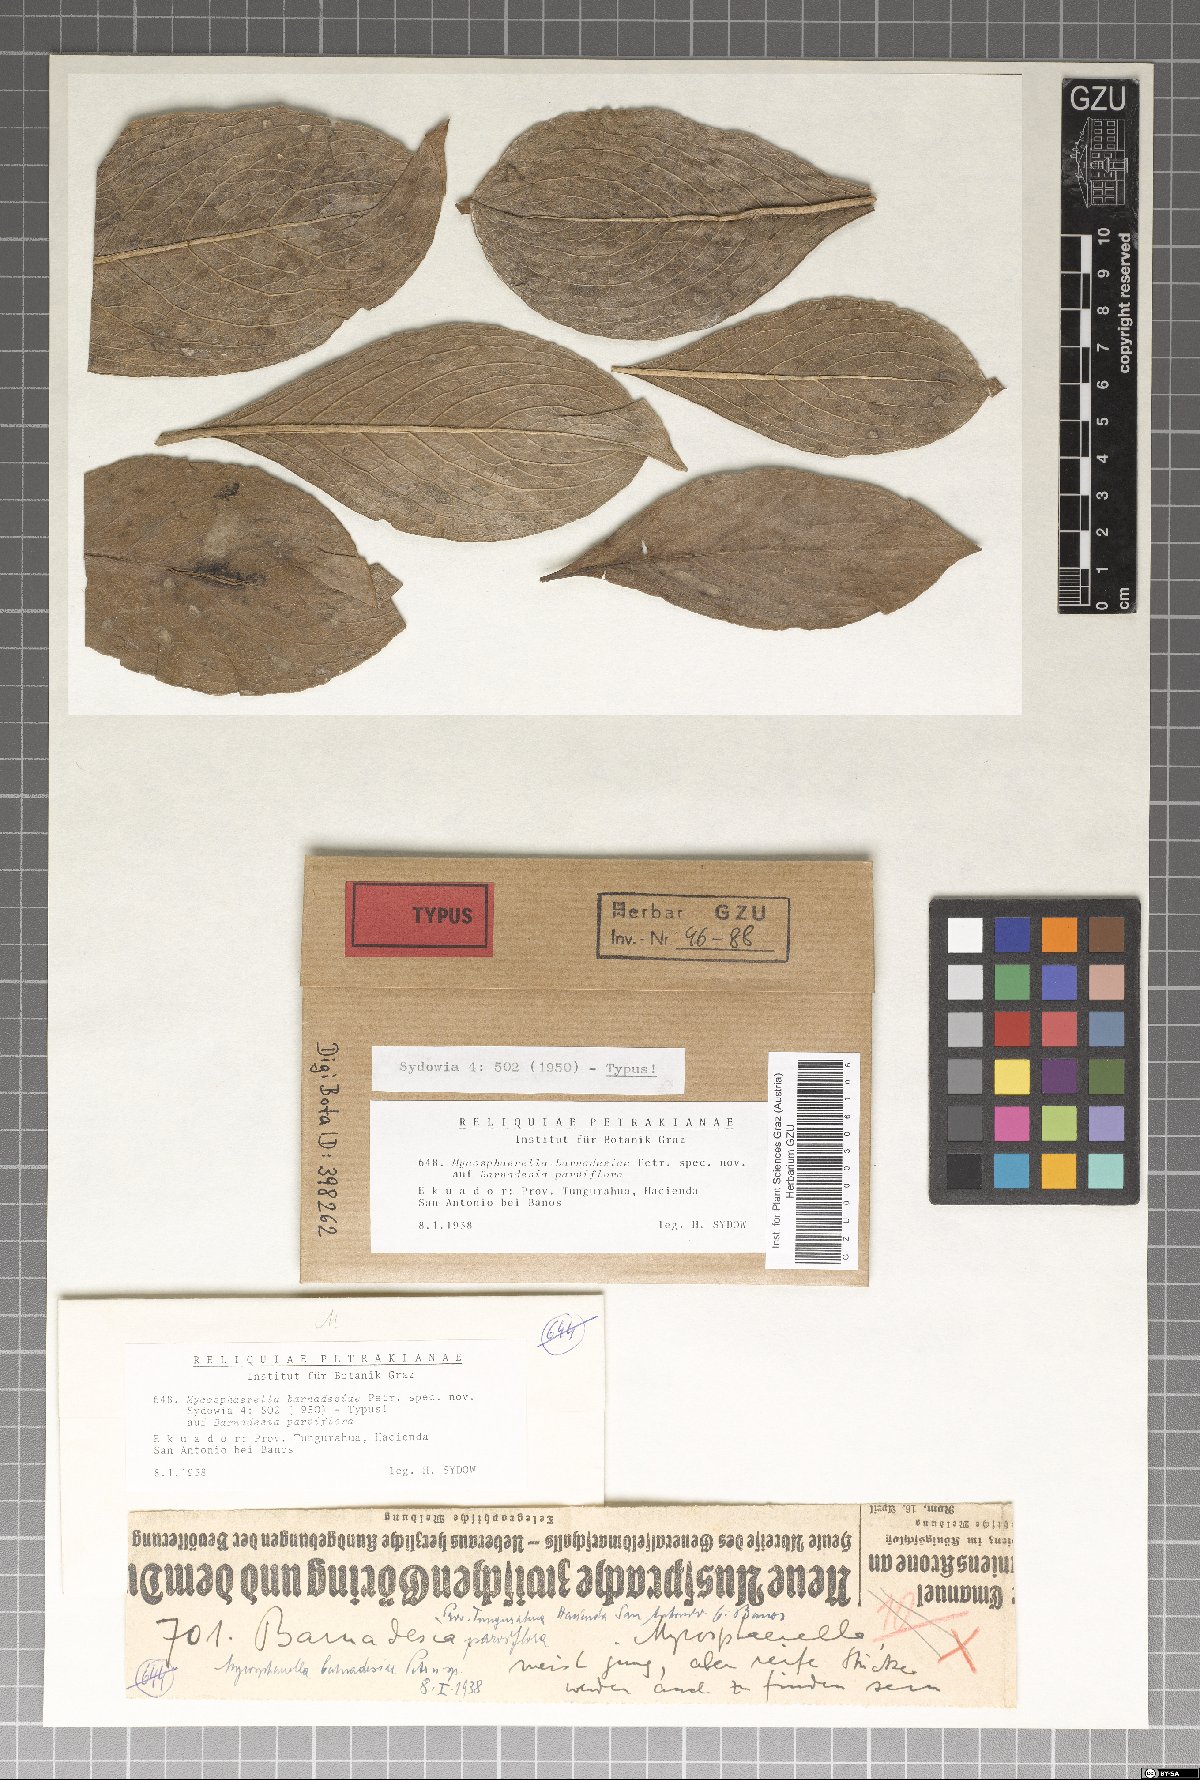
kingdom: Fungi
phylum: Ascomycota
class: Dothideomycetes
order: Mycosphaerellales
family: Mycosphaerellaceae
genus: Mycosphaerella
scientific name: Mycosphaerella barnadesiae
